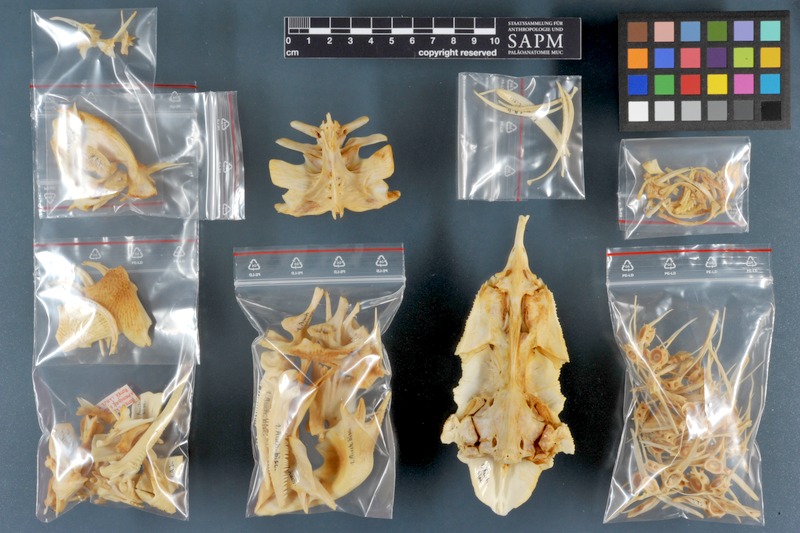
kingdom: Animalia
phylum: Chordata
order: Siluriformes
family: Claroteidae
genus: Auchenoglanis
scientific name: Auchenoglanis biscutatus
